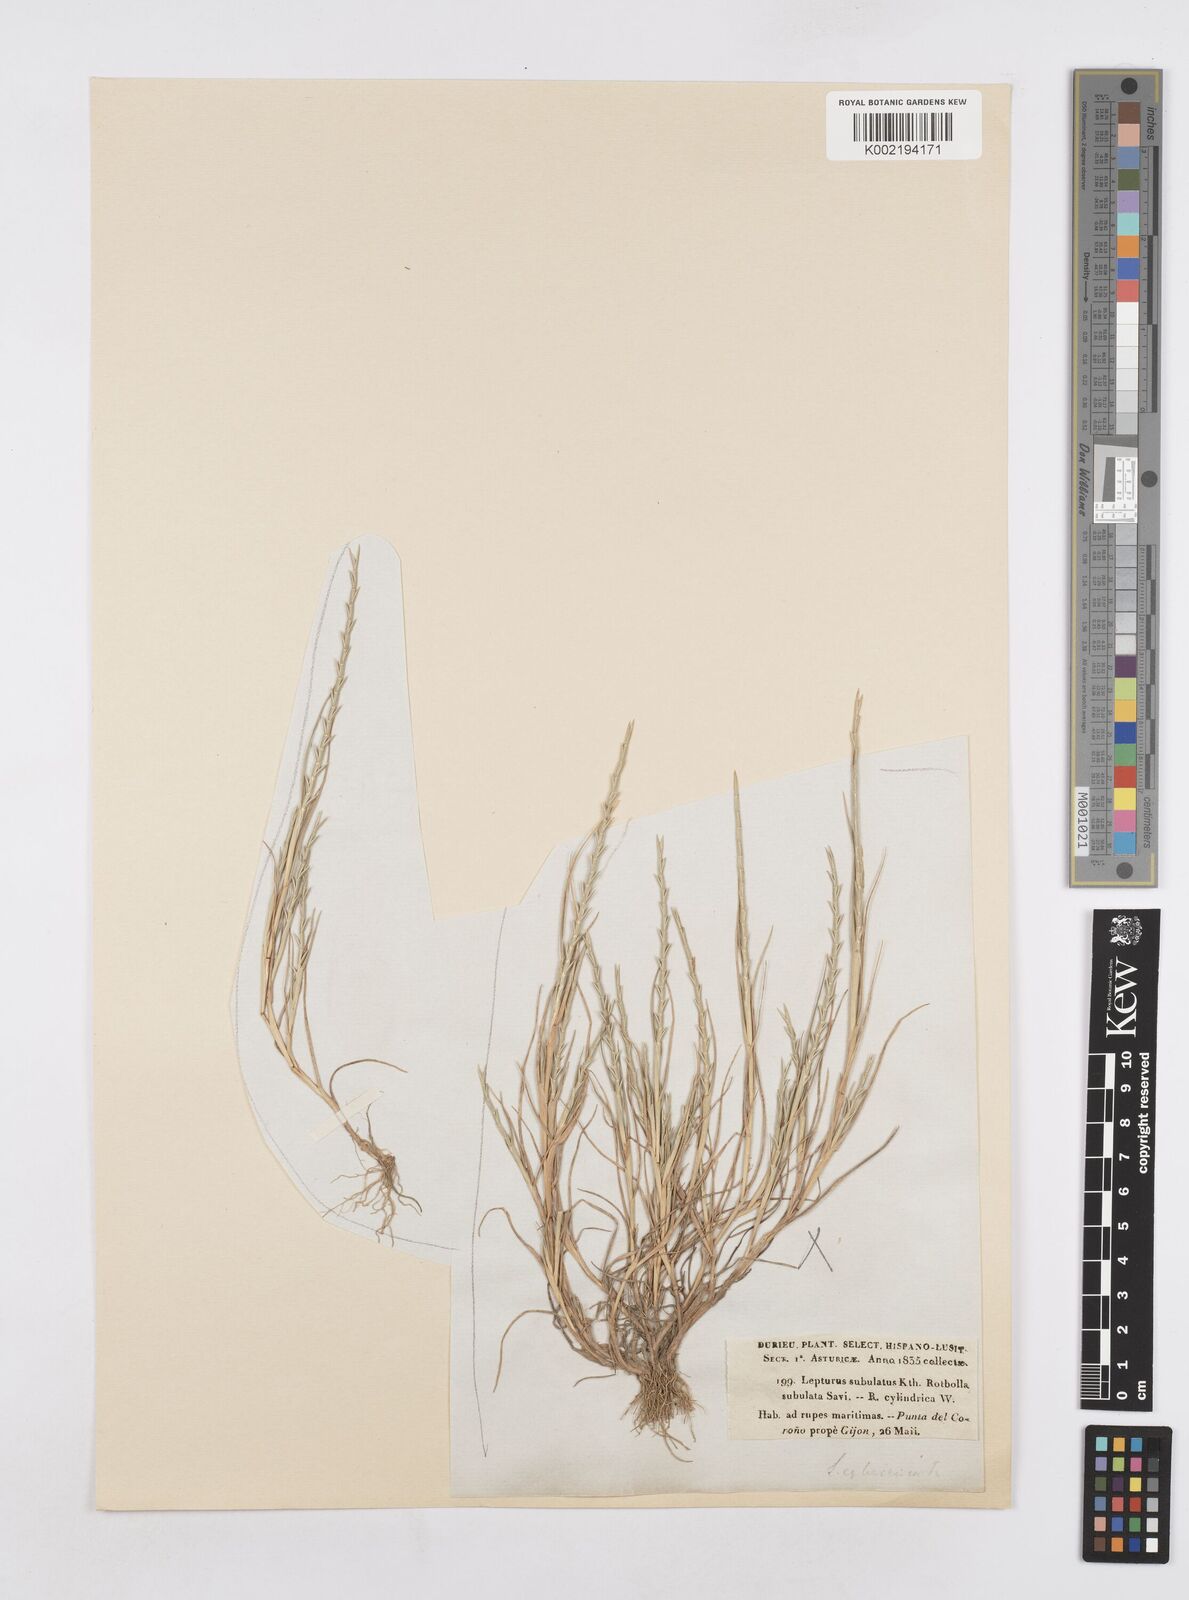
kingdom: Plantae
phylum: Tracheophyta
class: Liliopsida
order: Poales
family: Poaceae
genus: Parapholis
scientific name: Parapholis cylindrica
